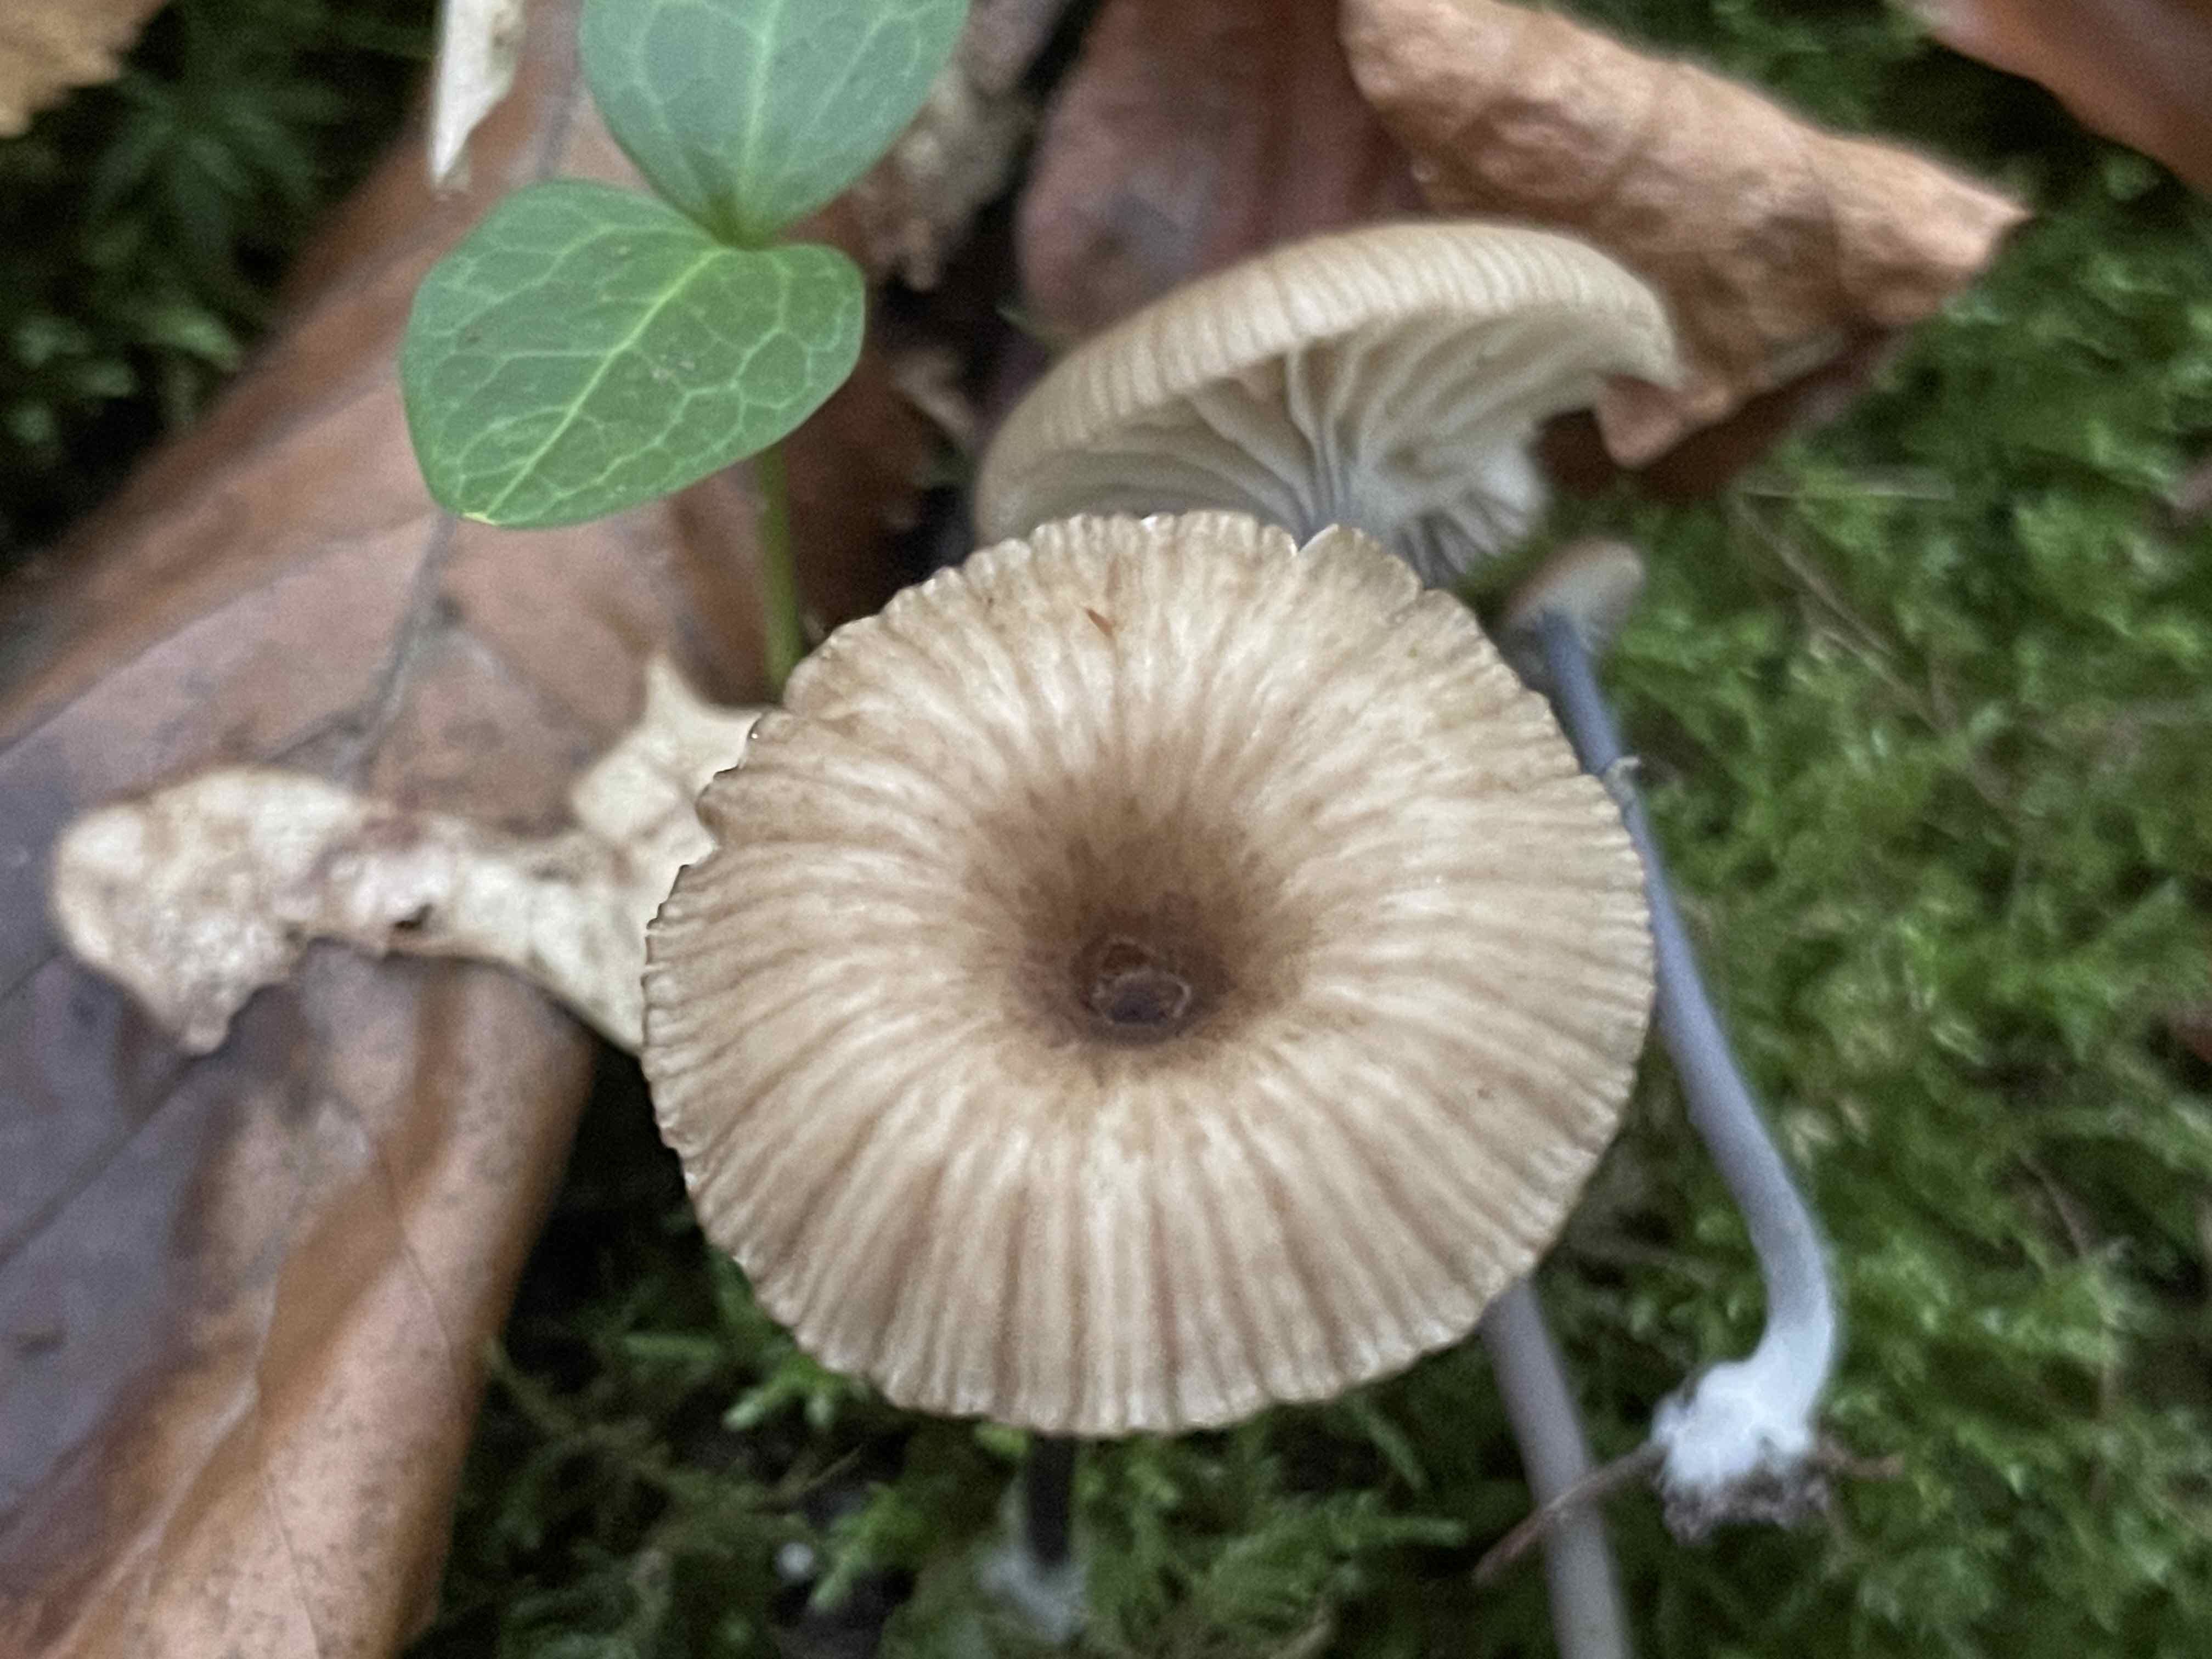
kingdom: Fungi
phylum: Basidiomycota
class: Agaricomycetes
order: Agaricales
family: Entolomataceae
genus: Entoloma
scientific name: Entoloma lividocyanulum
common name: mørkøjet rødblad
